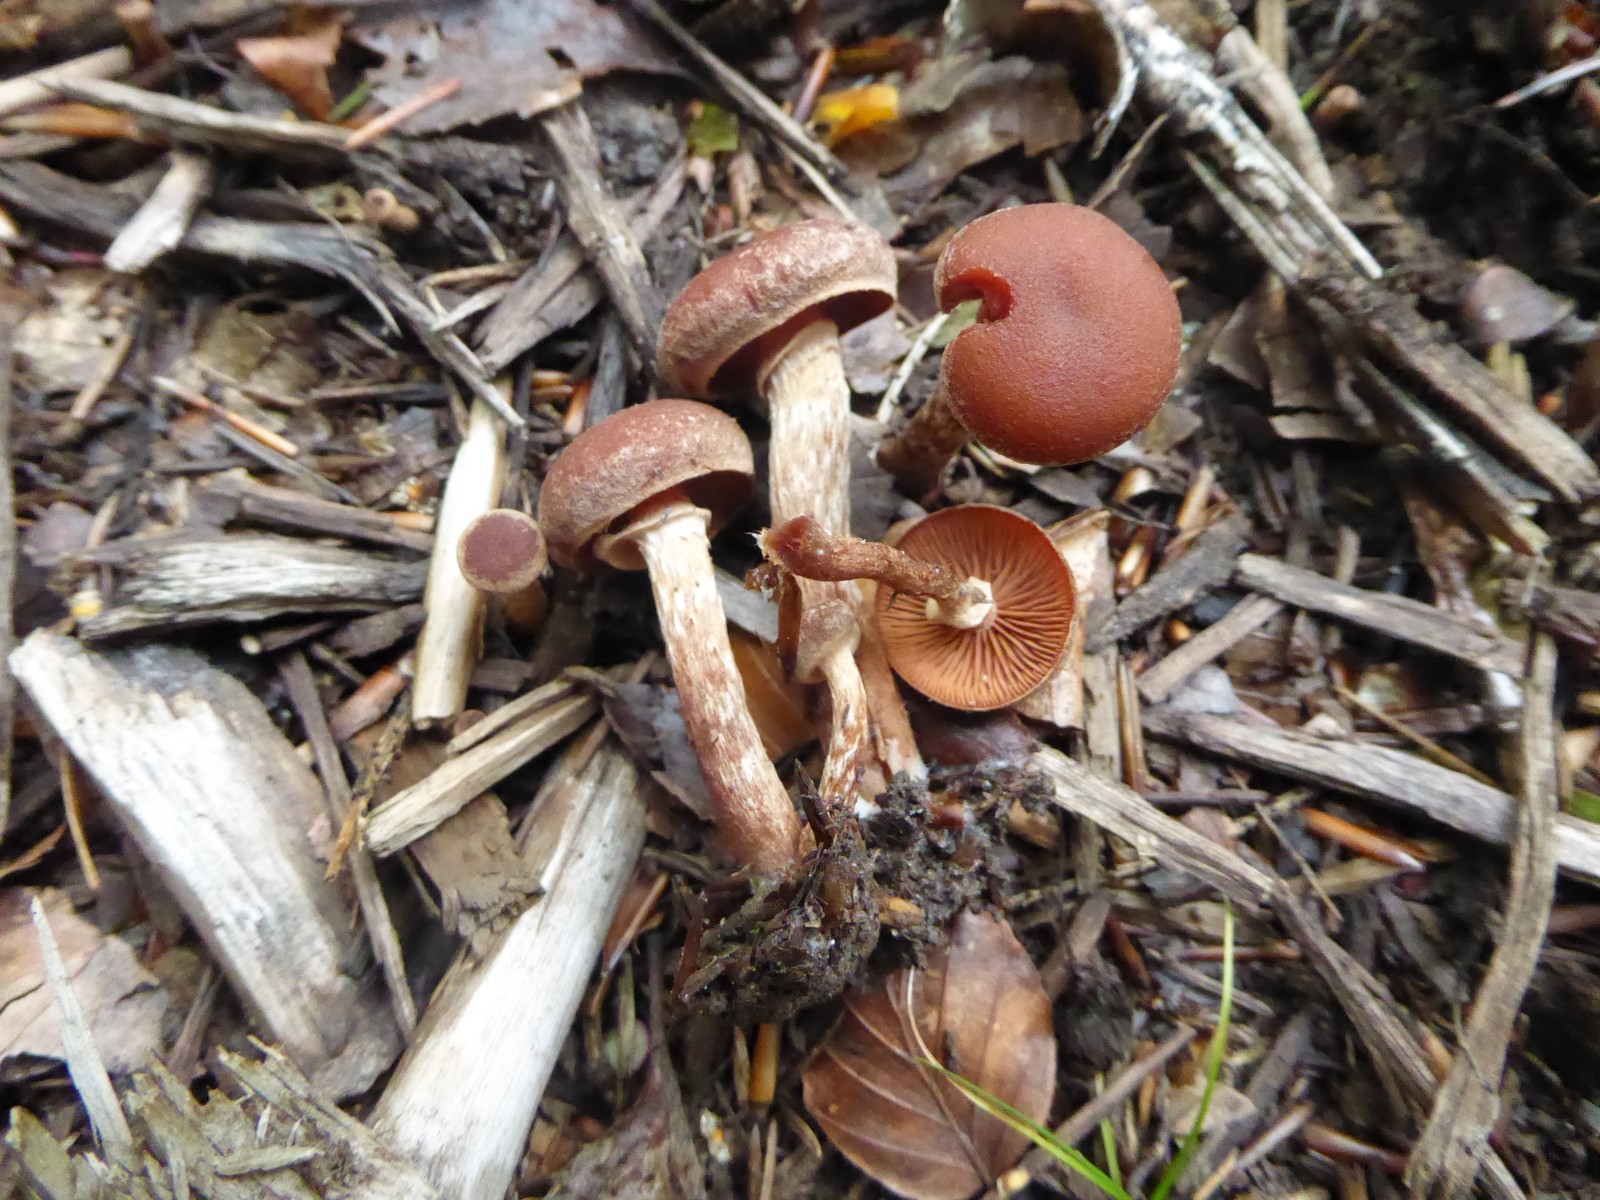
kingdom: Fungi
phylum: Basidiomycota
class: Agaricomycetes
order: Agaricales
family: Tubariaceae
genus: Tubaria
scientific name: Tubaria confragosa
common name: ring-fnughat
